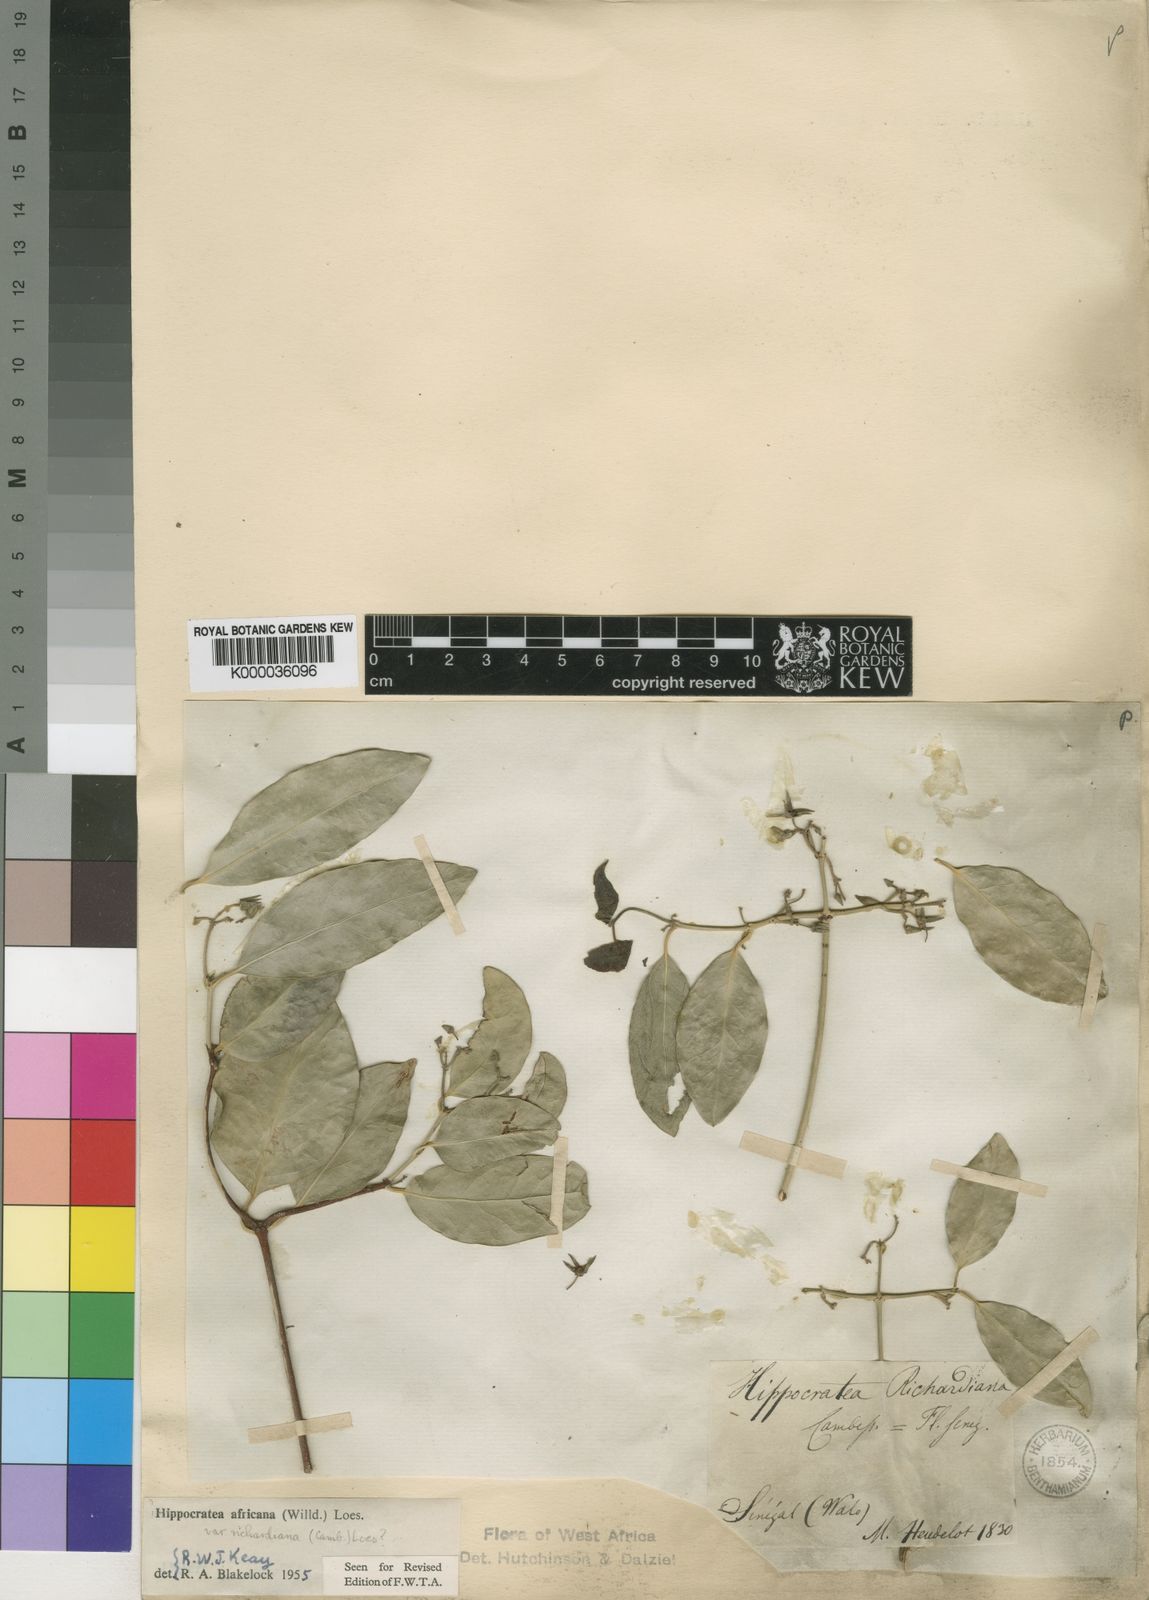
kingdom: Plantae
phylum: Tracheophyta
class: Magnoliopsida
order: Celastrales
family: Celastraceae
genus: Loeseneriella
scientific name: Loeseneriella
